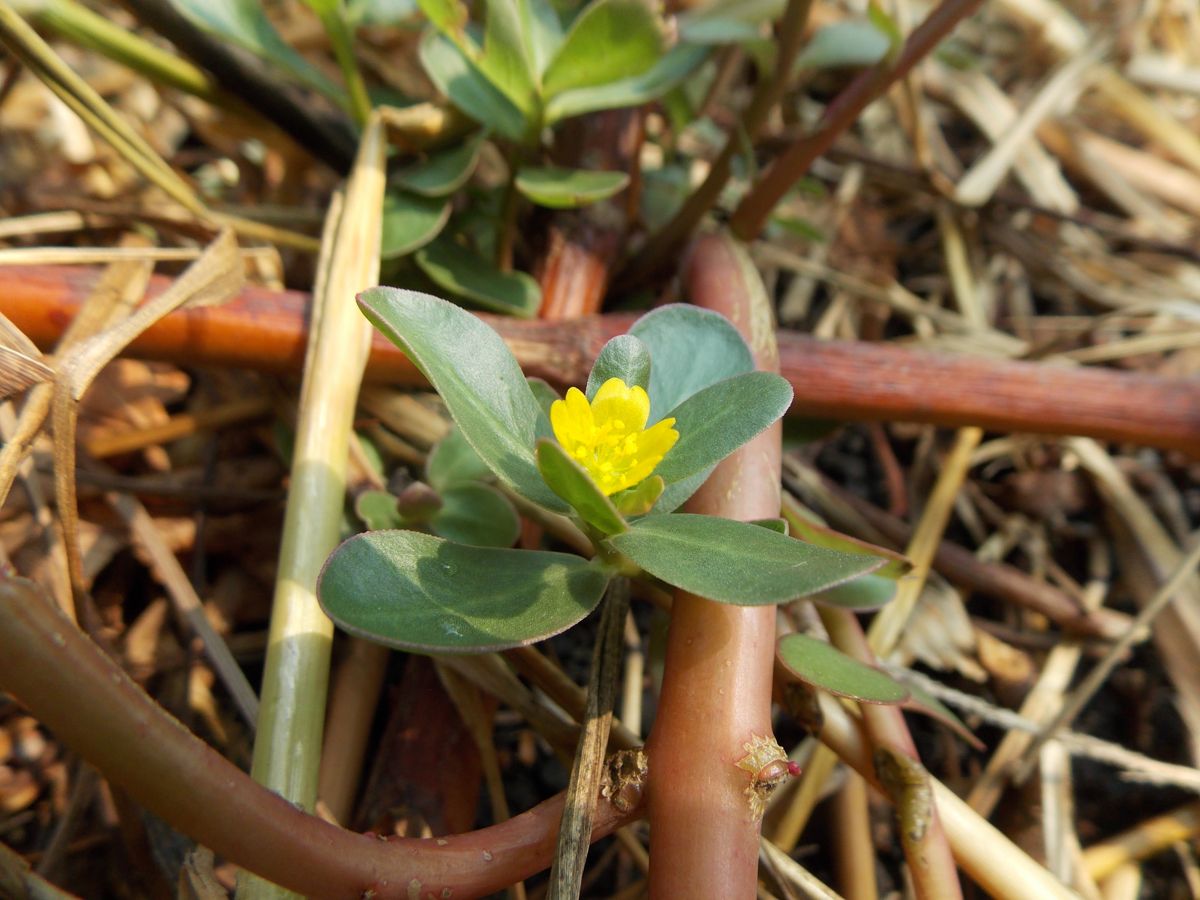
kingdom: Plantae
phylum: Tracheophyta
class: Magnoliopsida
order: Caryophyllales
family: Portulacaceae
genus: Portulaca
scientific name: Portulaca oleracea
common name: Common purslane
